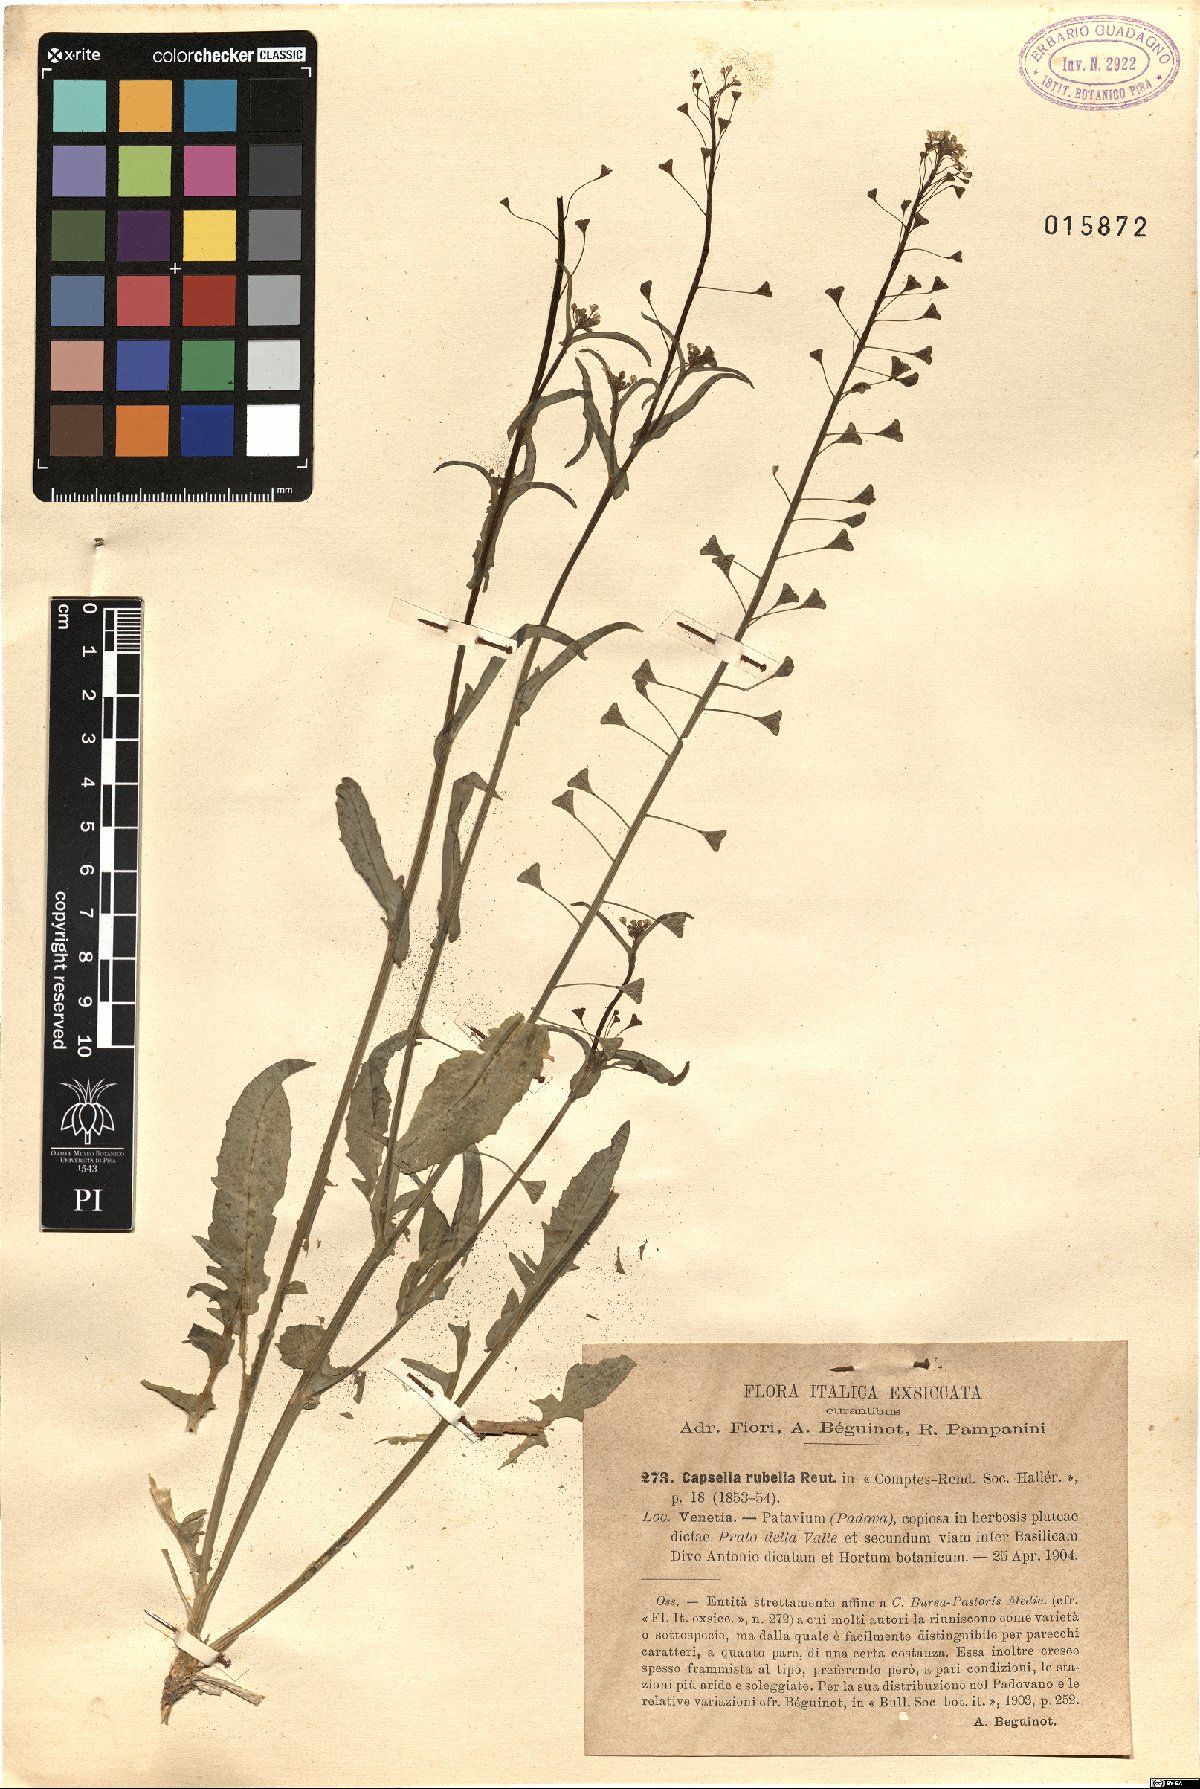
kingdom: Plantae
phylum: Tracheophyta
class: Magnoliopsida
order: Brassicales
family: Brassicaceae
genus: Capsella
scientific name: Capsella rubella
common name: Pink shepherd's-purse
